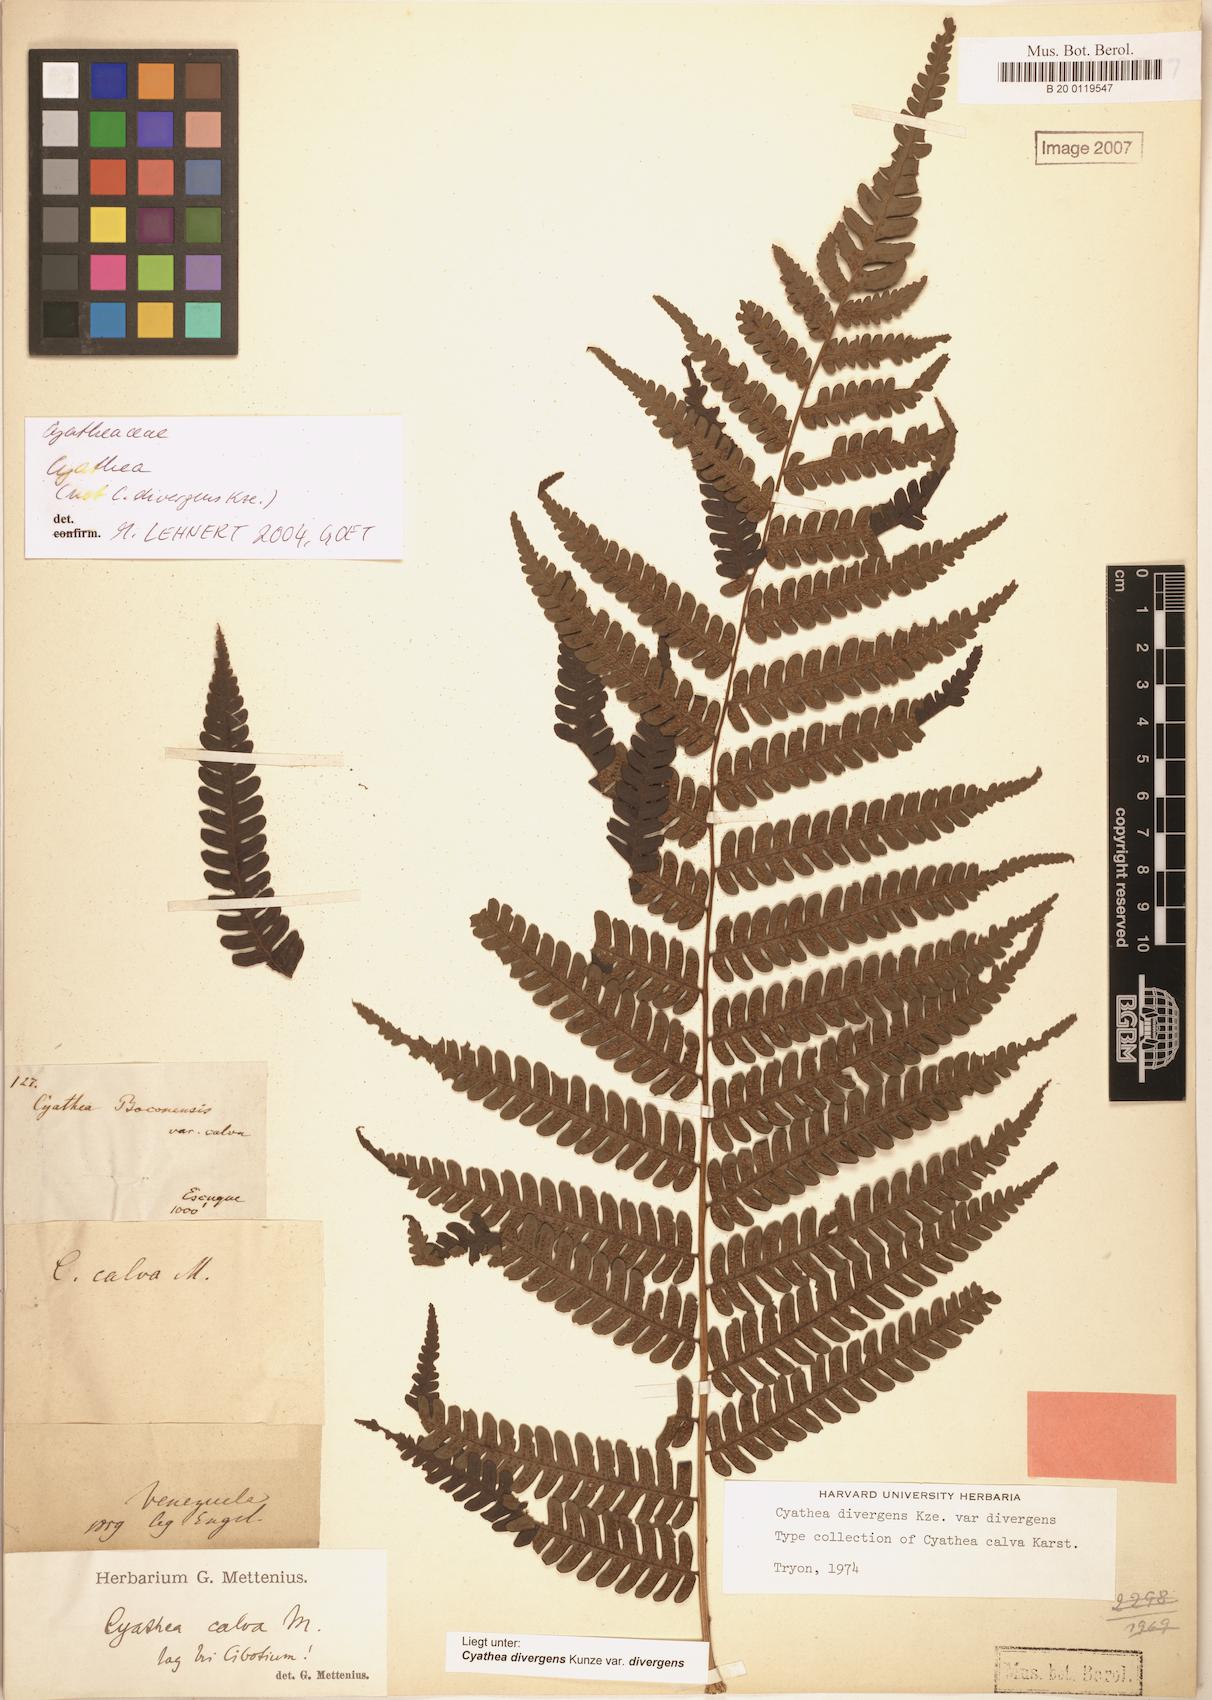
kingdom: Plantae
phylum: Tracheophyta
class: Polypodiopsida
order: Cyatheales
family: Cyatheaceae
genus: Cyathea
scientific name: Cyathea divergens
